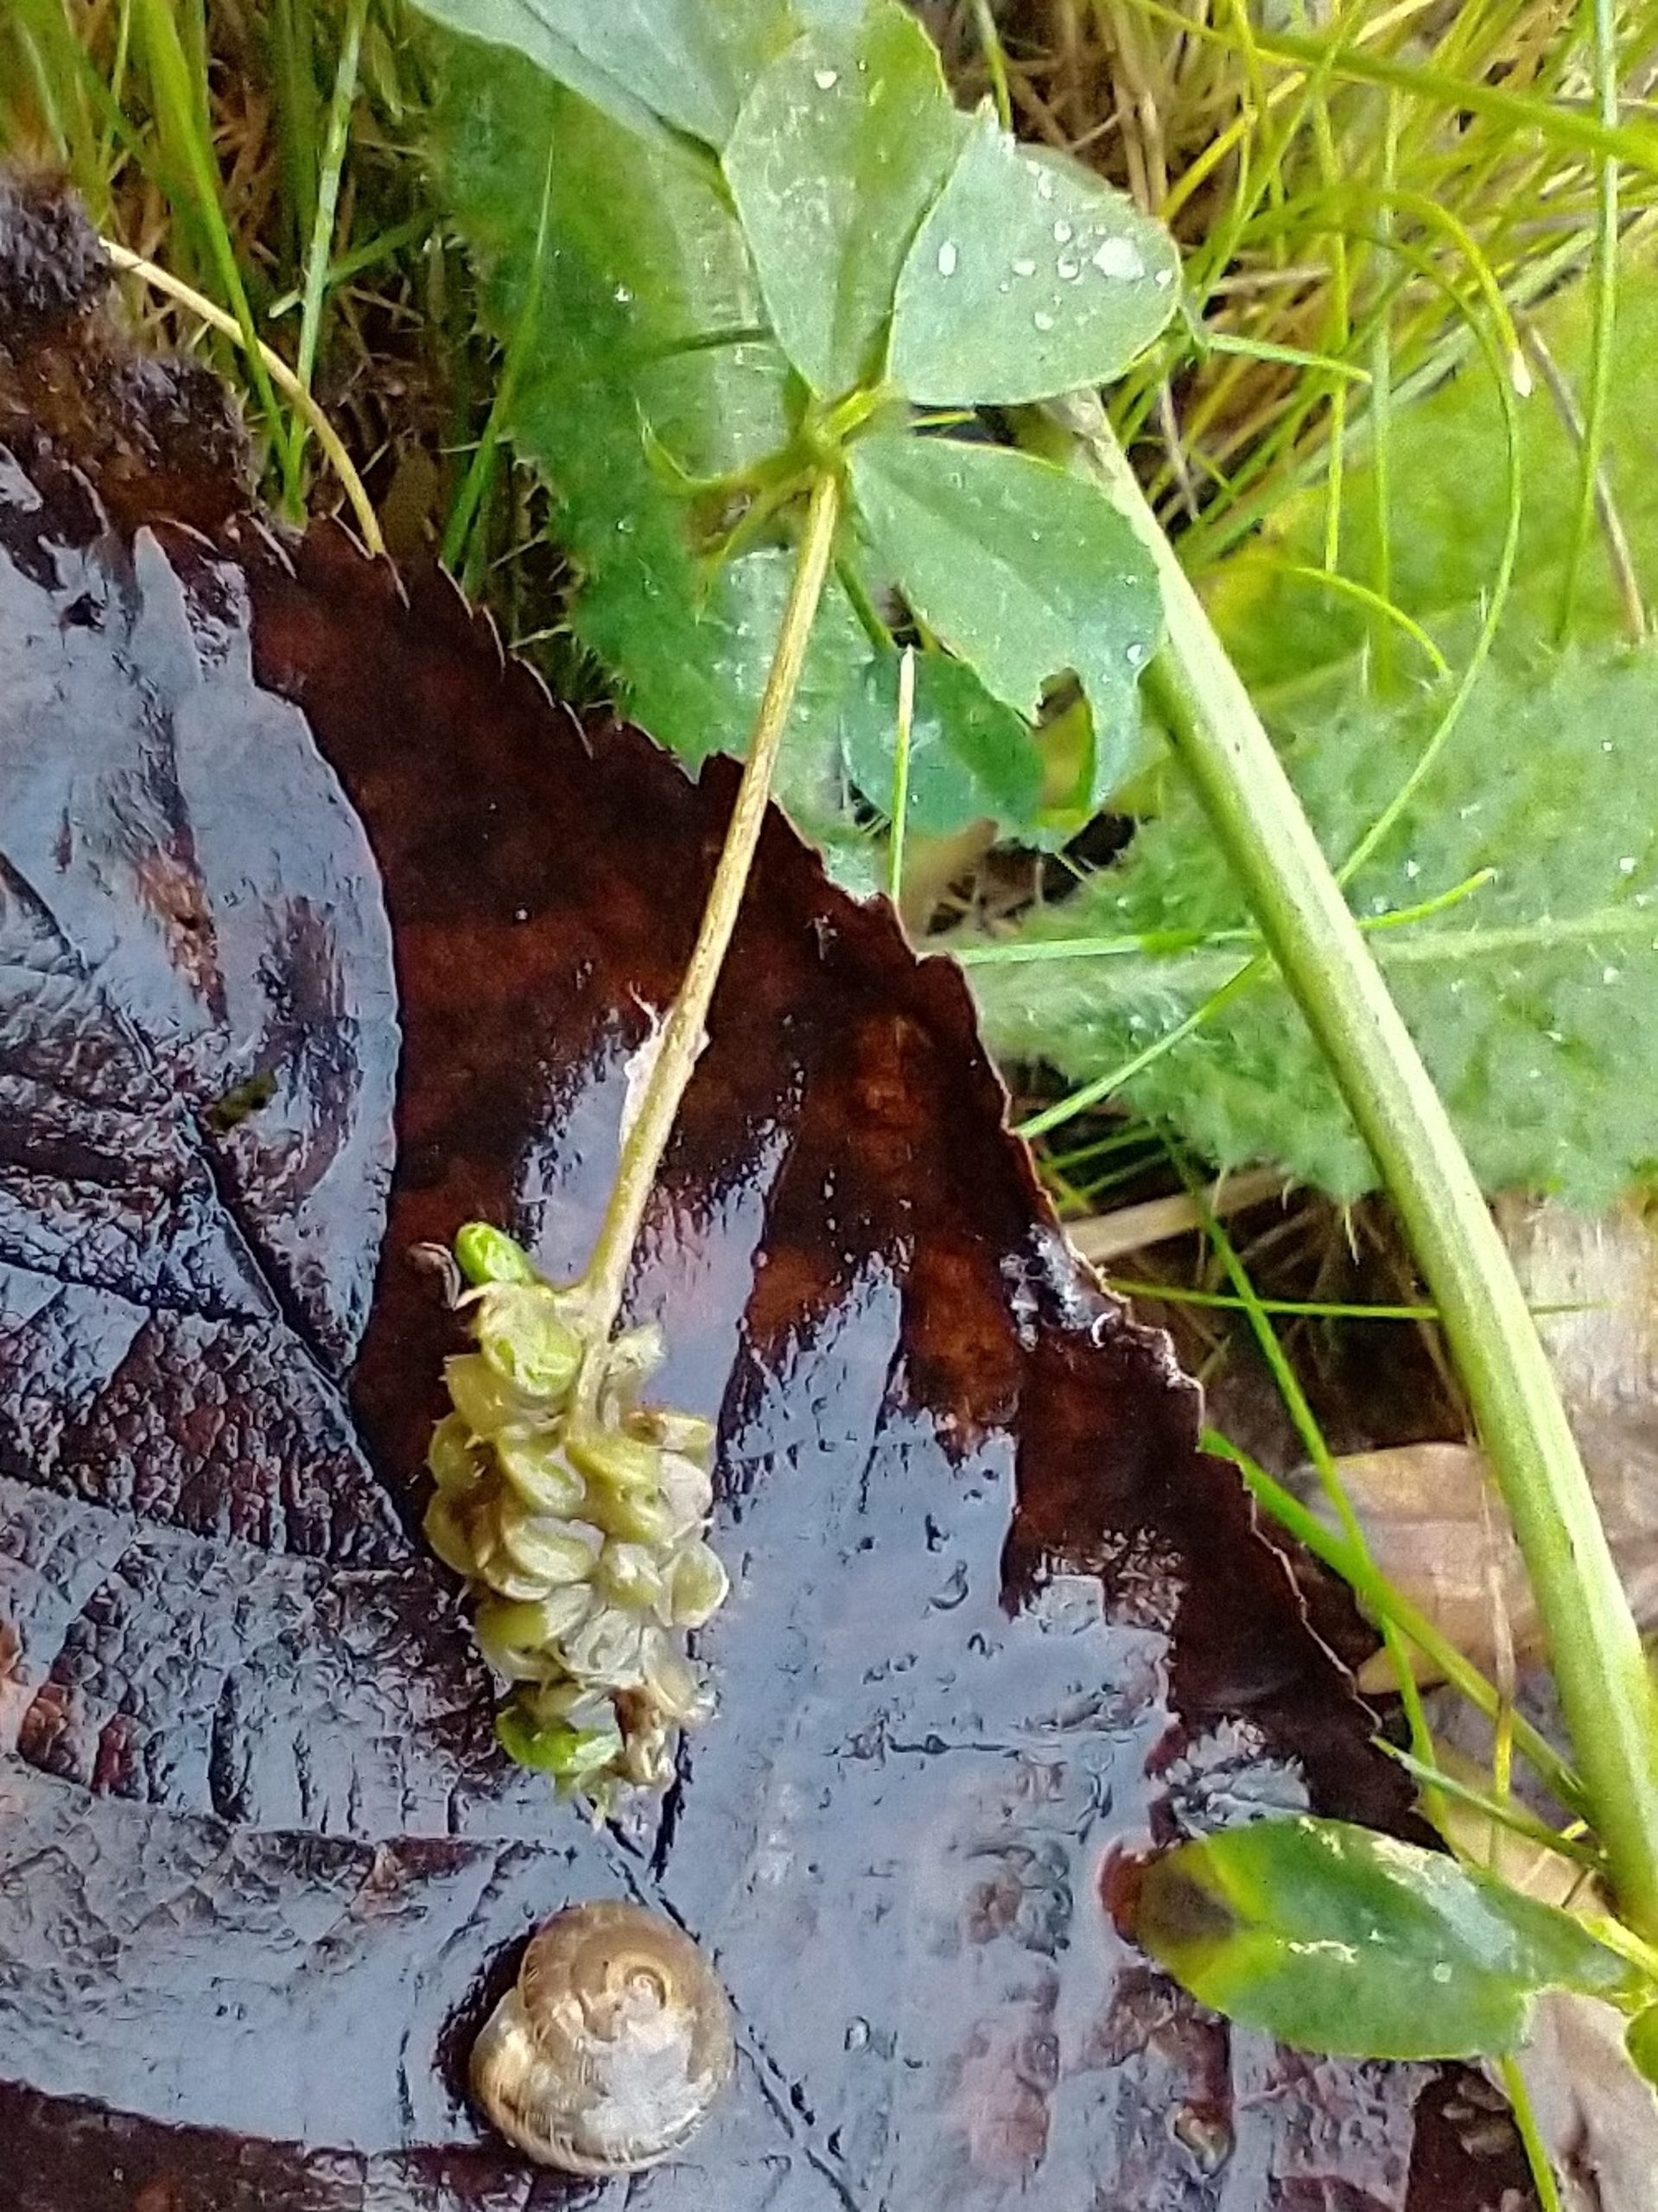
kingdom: Plantae
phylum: Tracheophyta
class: Magnoliopsida
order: Fabales
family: Fabaceae
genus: Medicago
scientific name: Medicago lupulina
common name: Humle-sneglebælg
